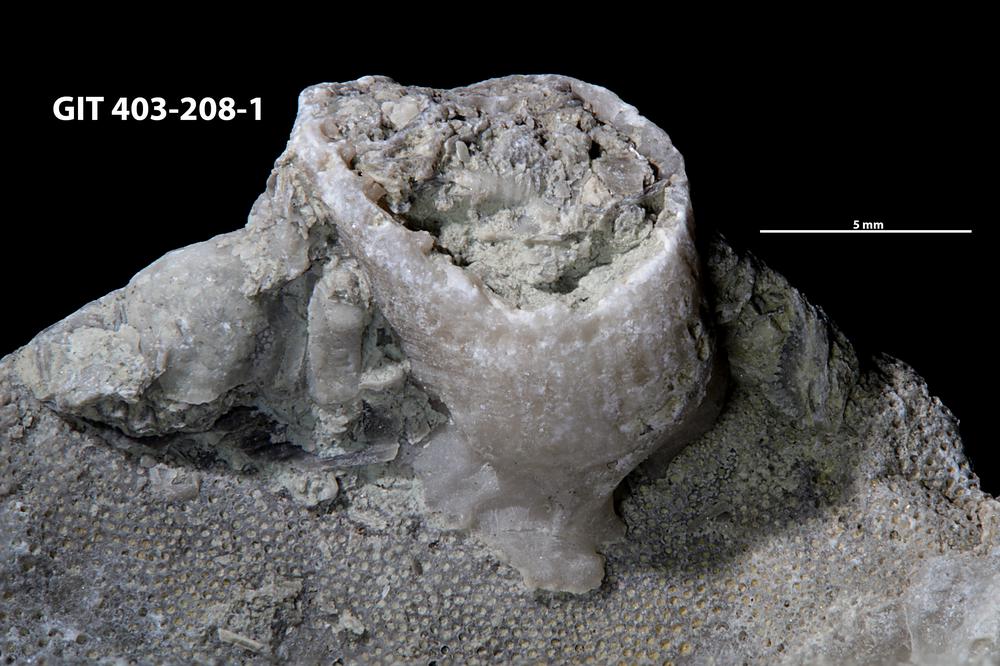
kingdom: Animalia
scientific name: Animalia
